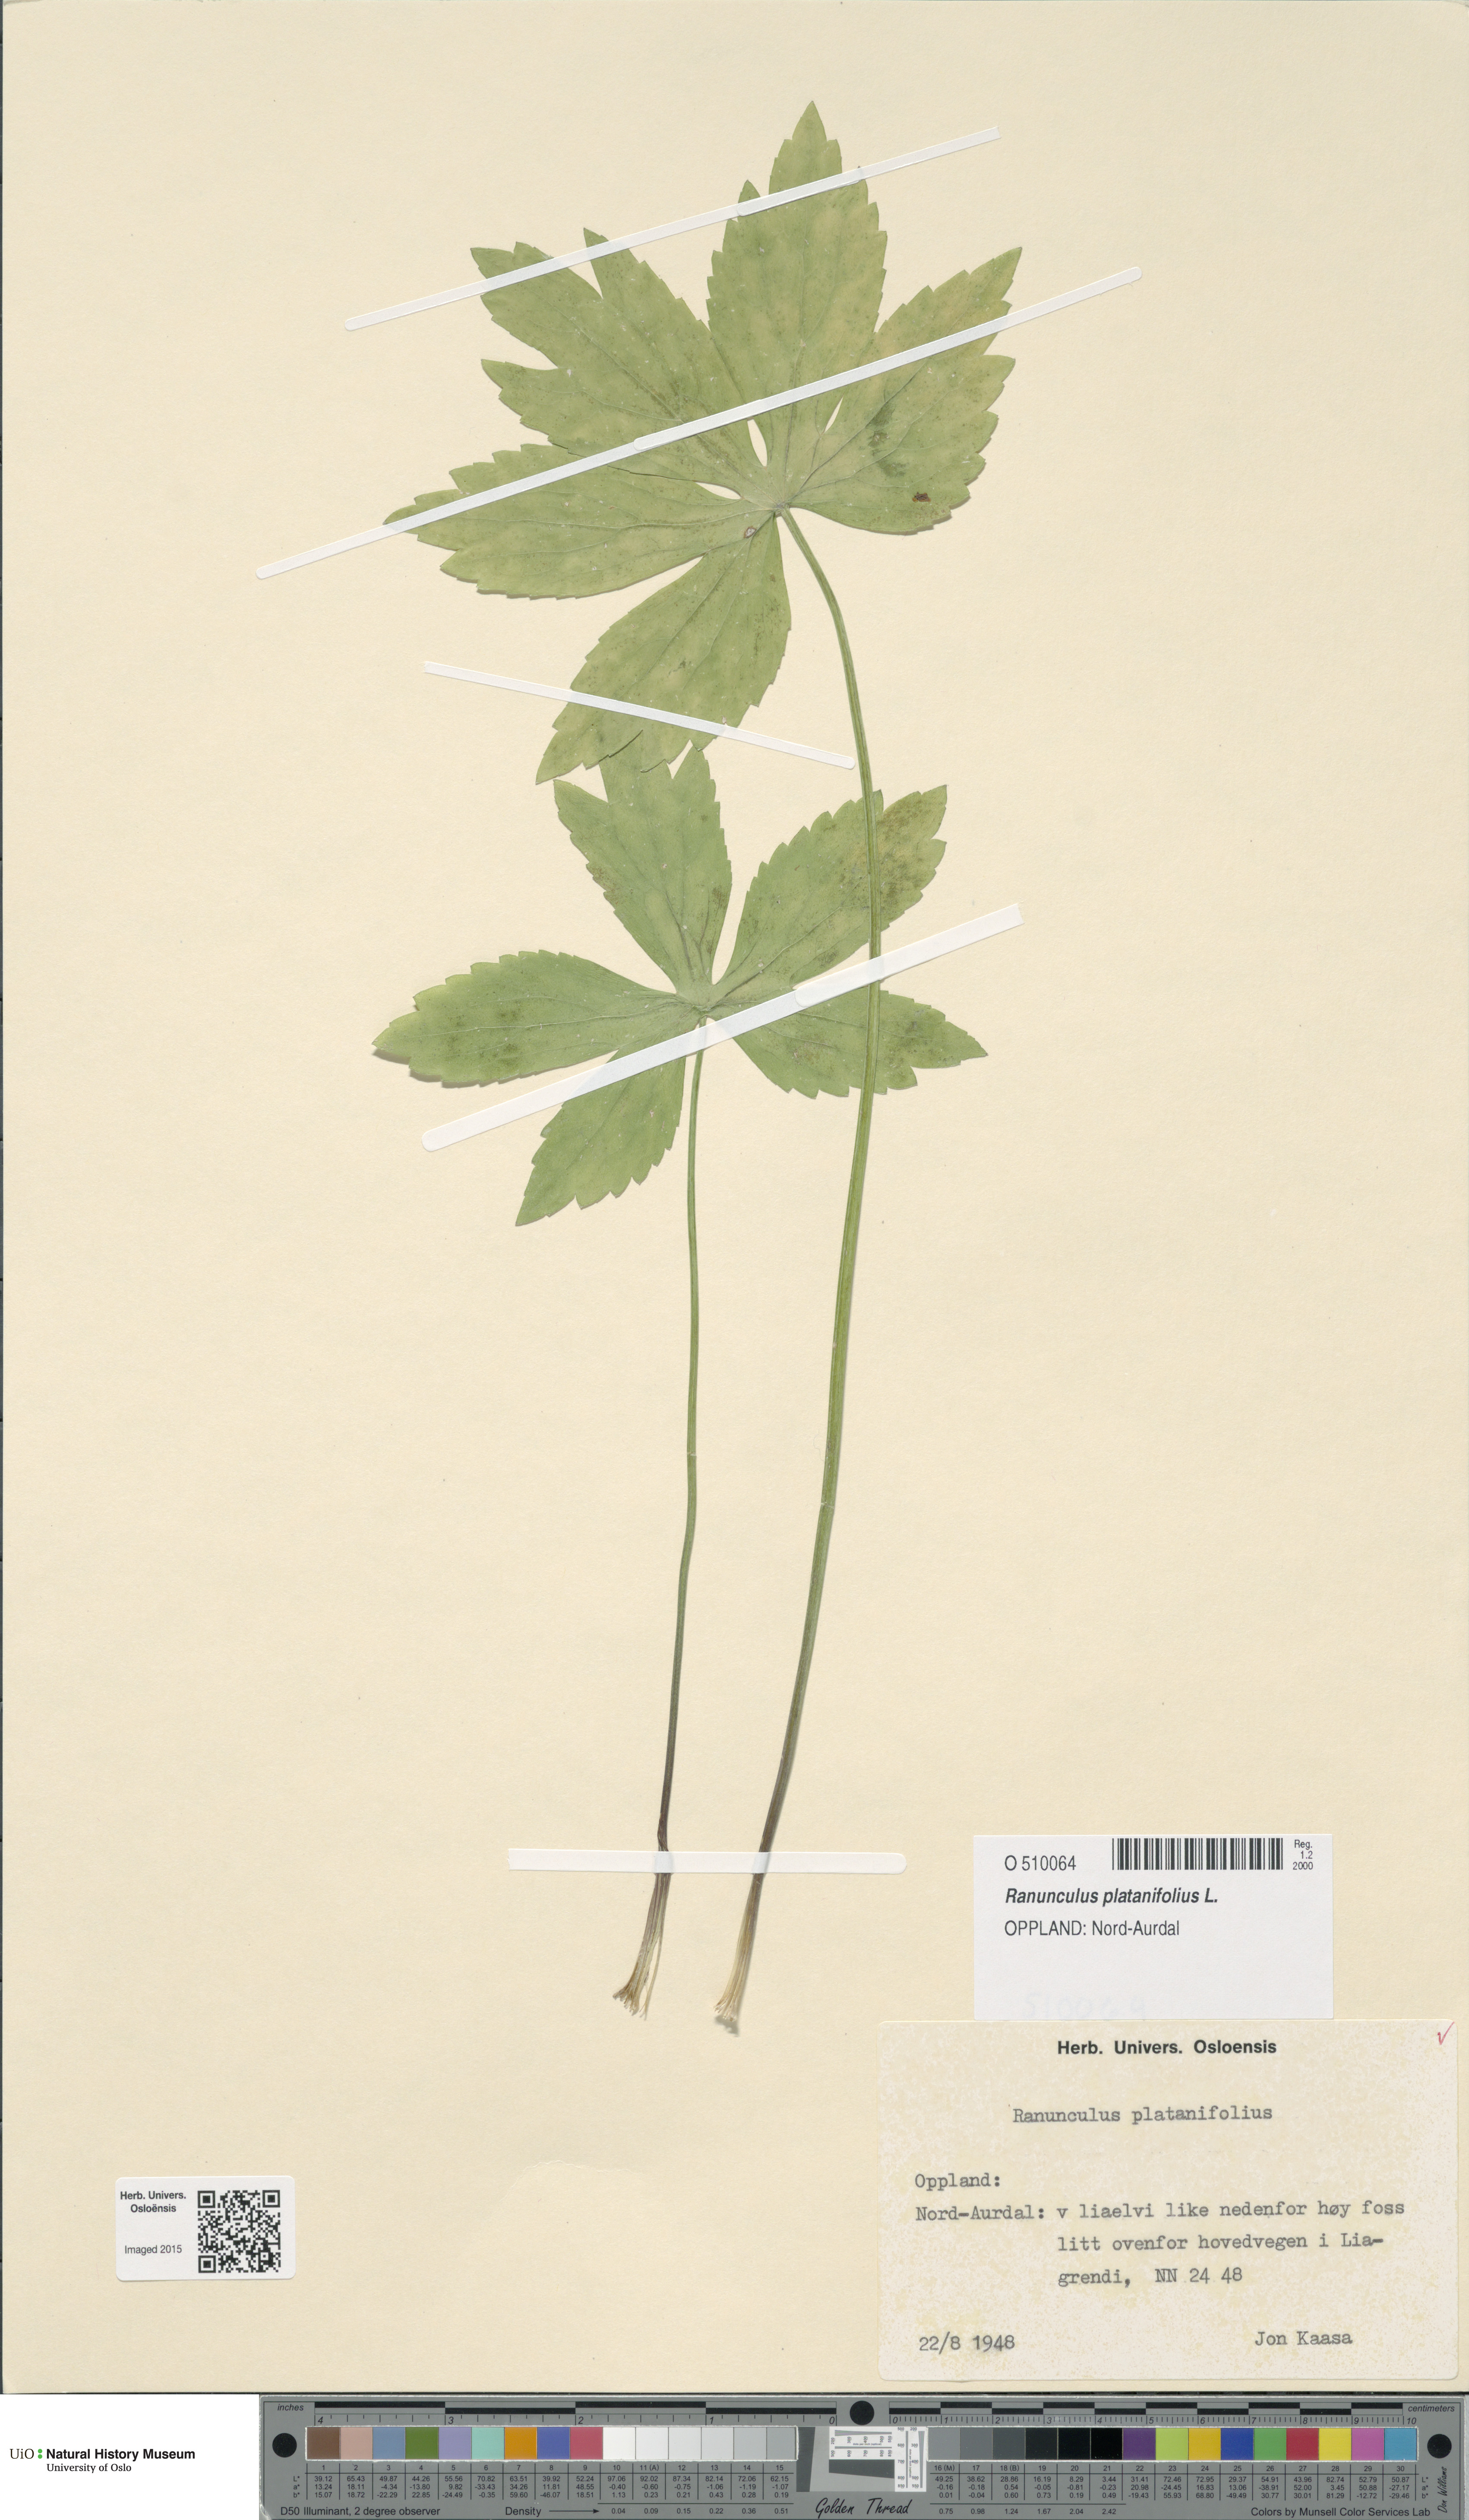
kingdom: Plantae
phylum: Tracheophyta
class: Magnoliopsida
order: Ranunculales
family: Ranunculaceae
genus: Ranunculus
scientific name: Ranunculus platanifolius
